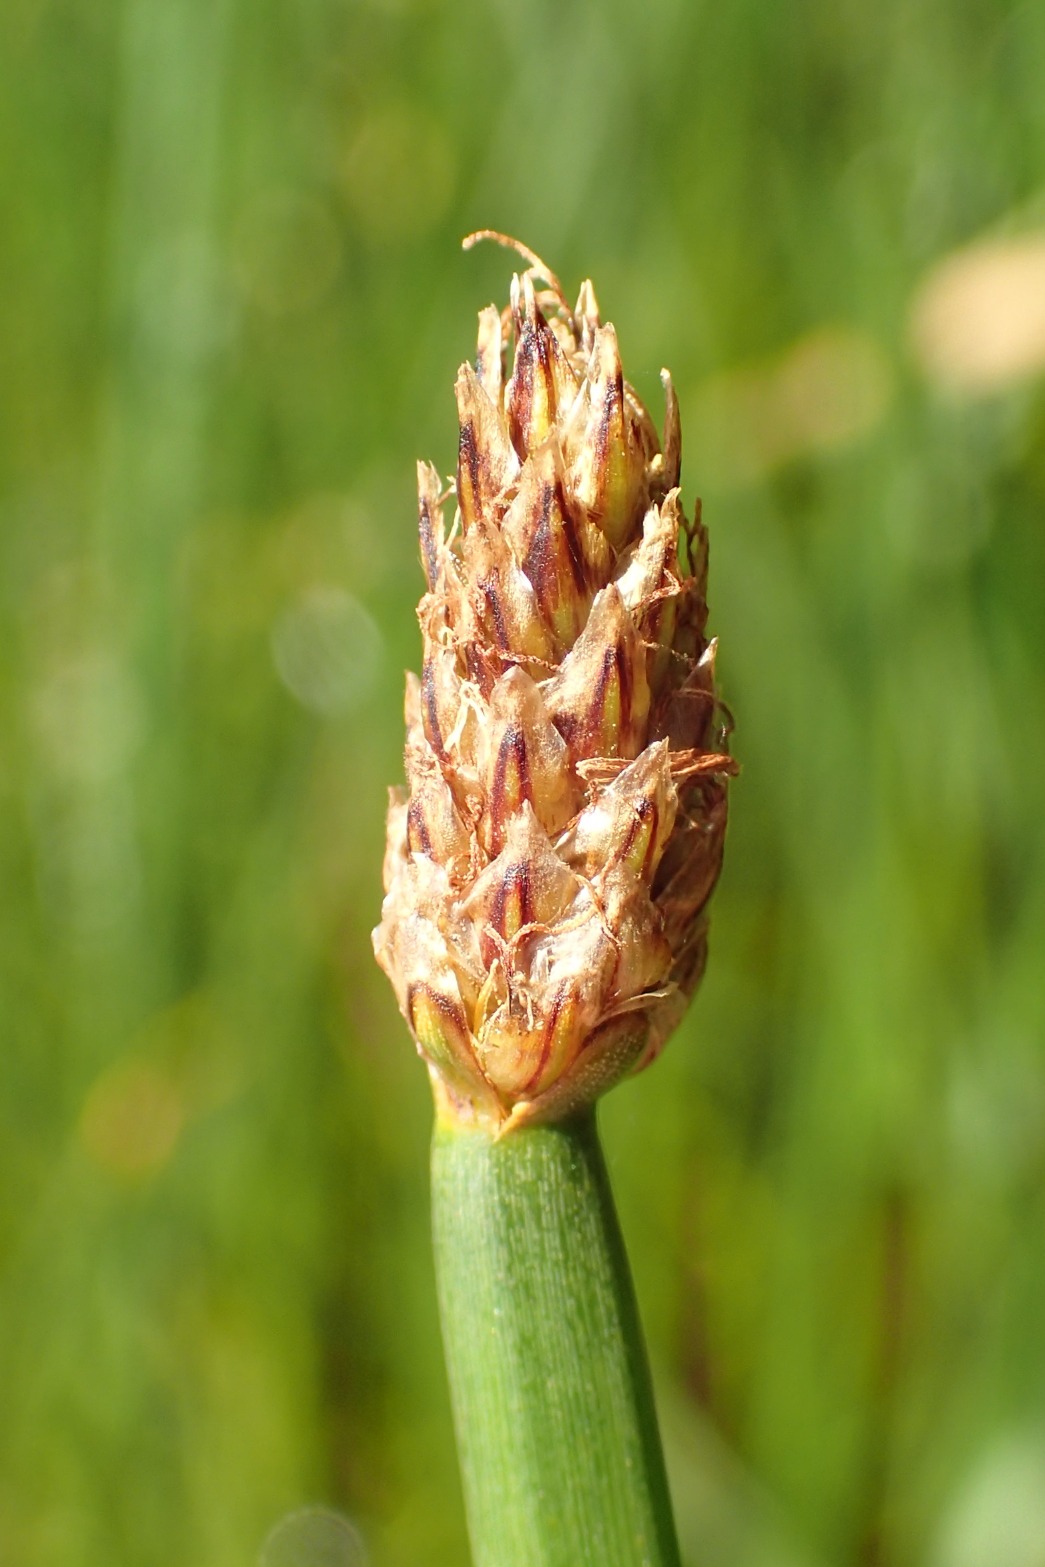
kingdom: Plantae
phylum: Tracheophyta
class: Liliopsida
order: Poales
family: Cyperaceae
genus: Eleocharis
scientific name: Eleocharis palustris
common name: Almindelig sumpstrå
